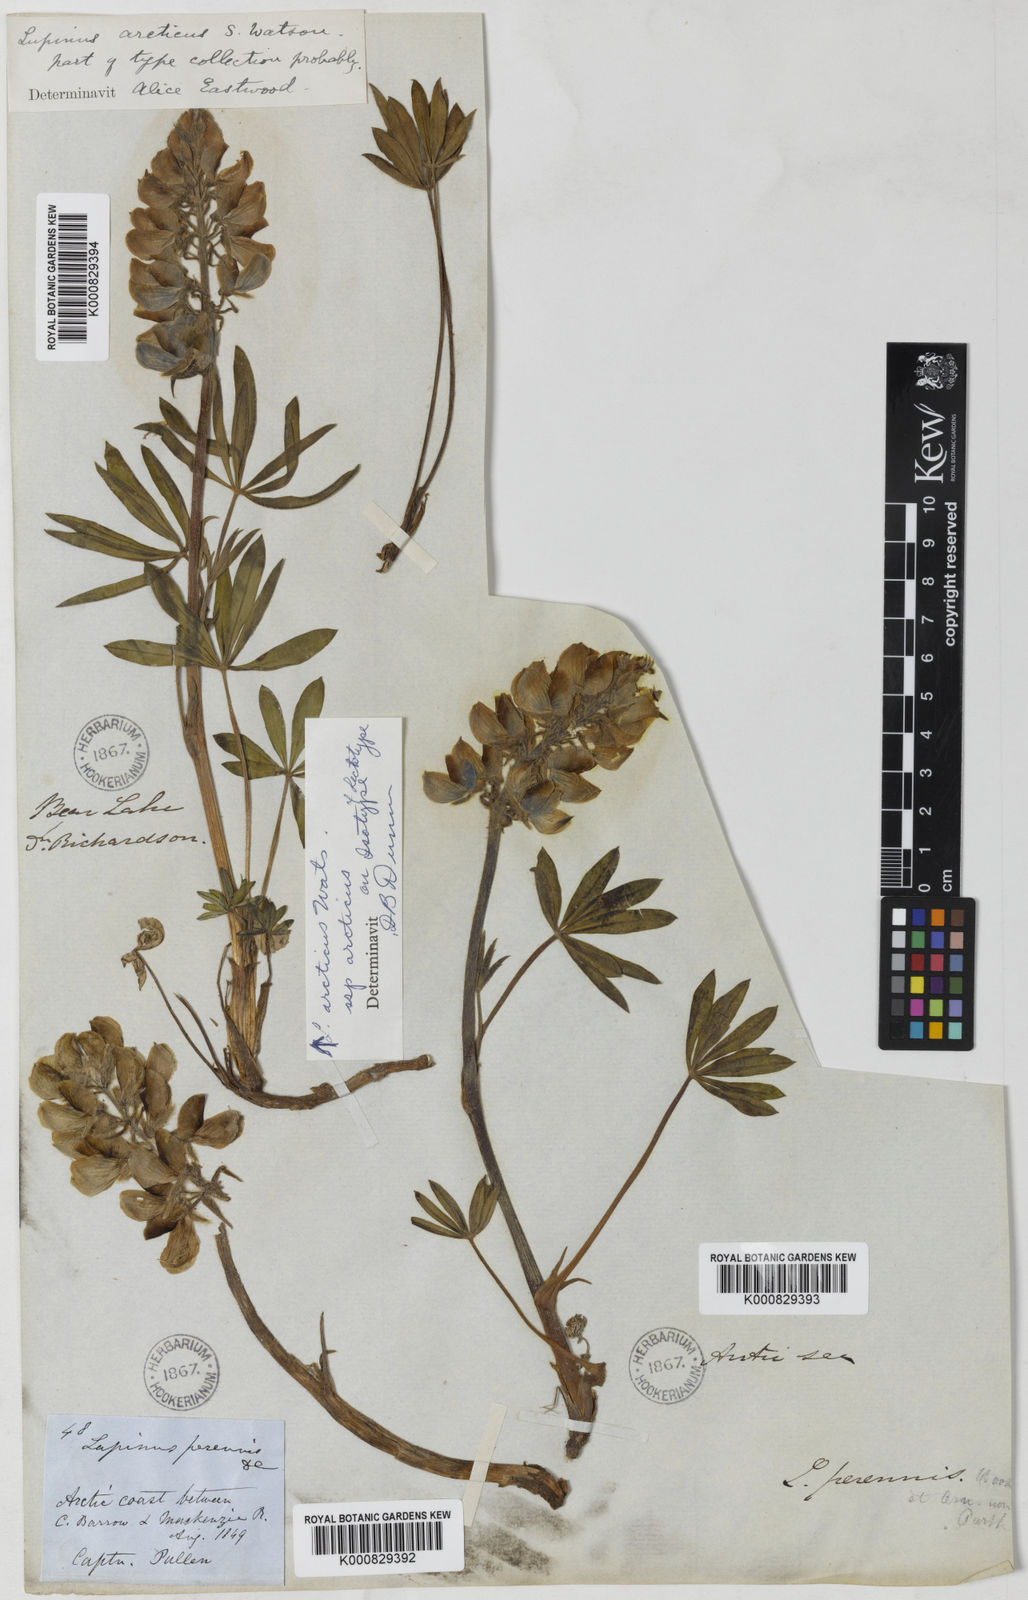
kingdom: Plantae
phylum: Tracheophyta
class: Magnoliopsida
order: Fabales
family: Fabaceae
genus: Lupinus
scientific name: Lupinus arcticus
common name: Arctic lupine
